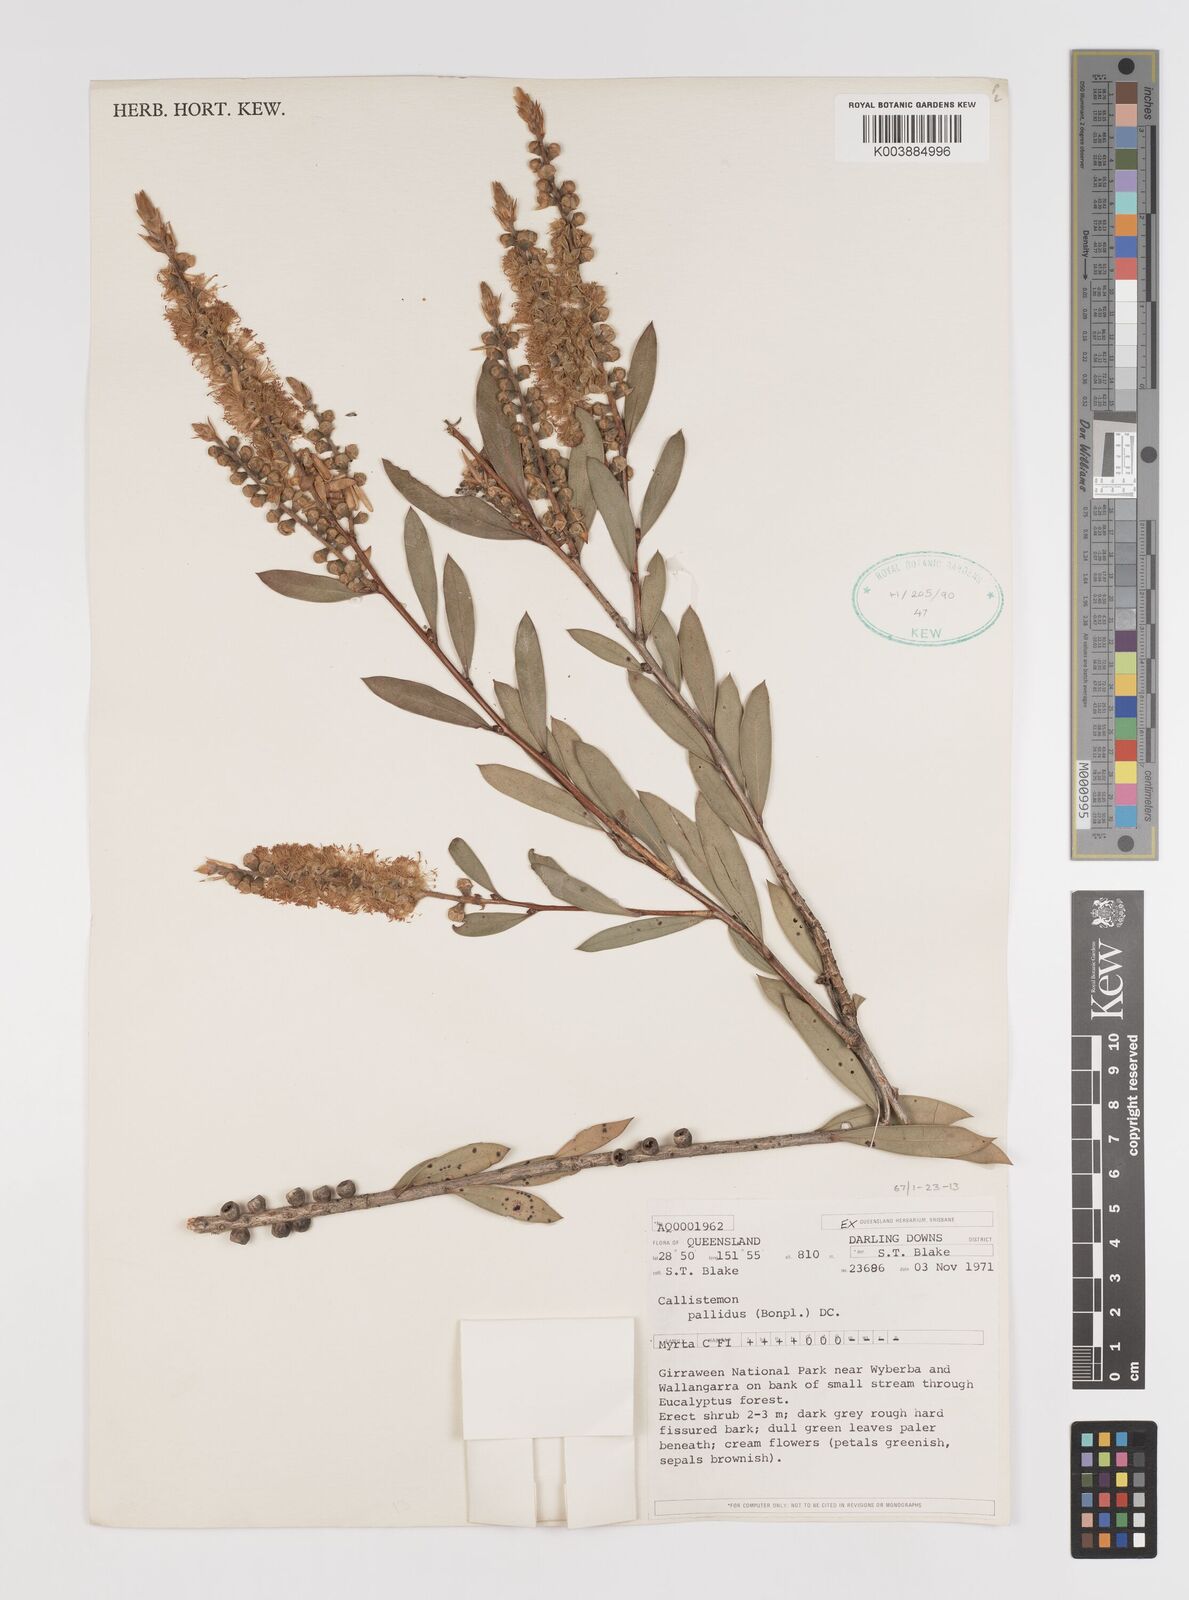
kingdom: Plantae
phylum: Tracheophyta
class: Magnoliopsida
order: Myrtales
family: Myrtaceae
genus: Melaleuca
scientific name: Melaleuca pallida
